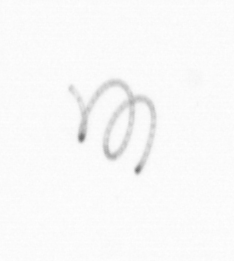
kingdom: Chromista
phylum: Ochrophyta
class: Bacillariophyceae
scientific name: Bacillariophyceae
